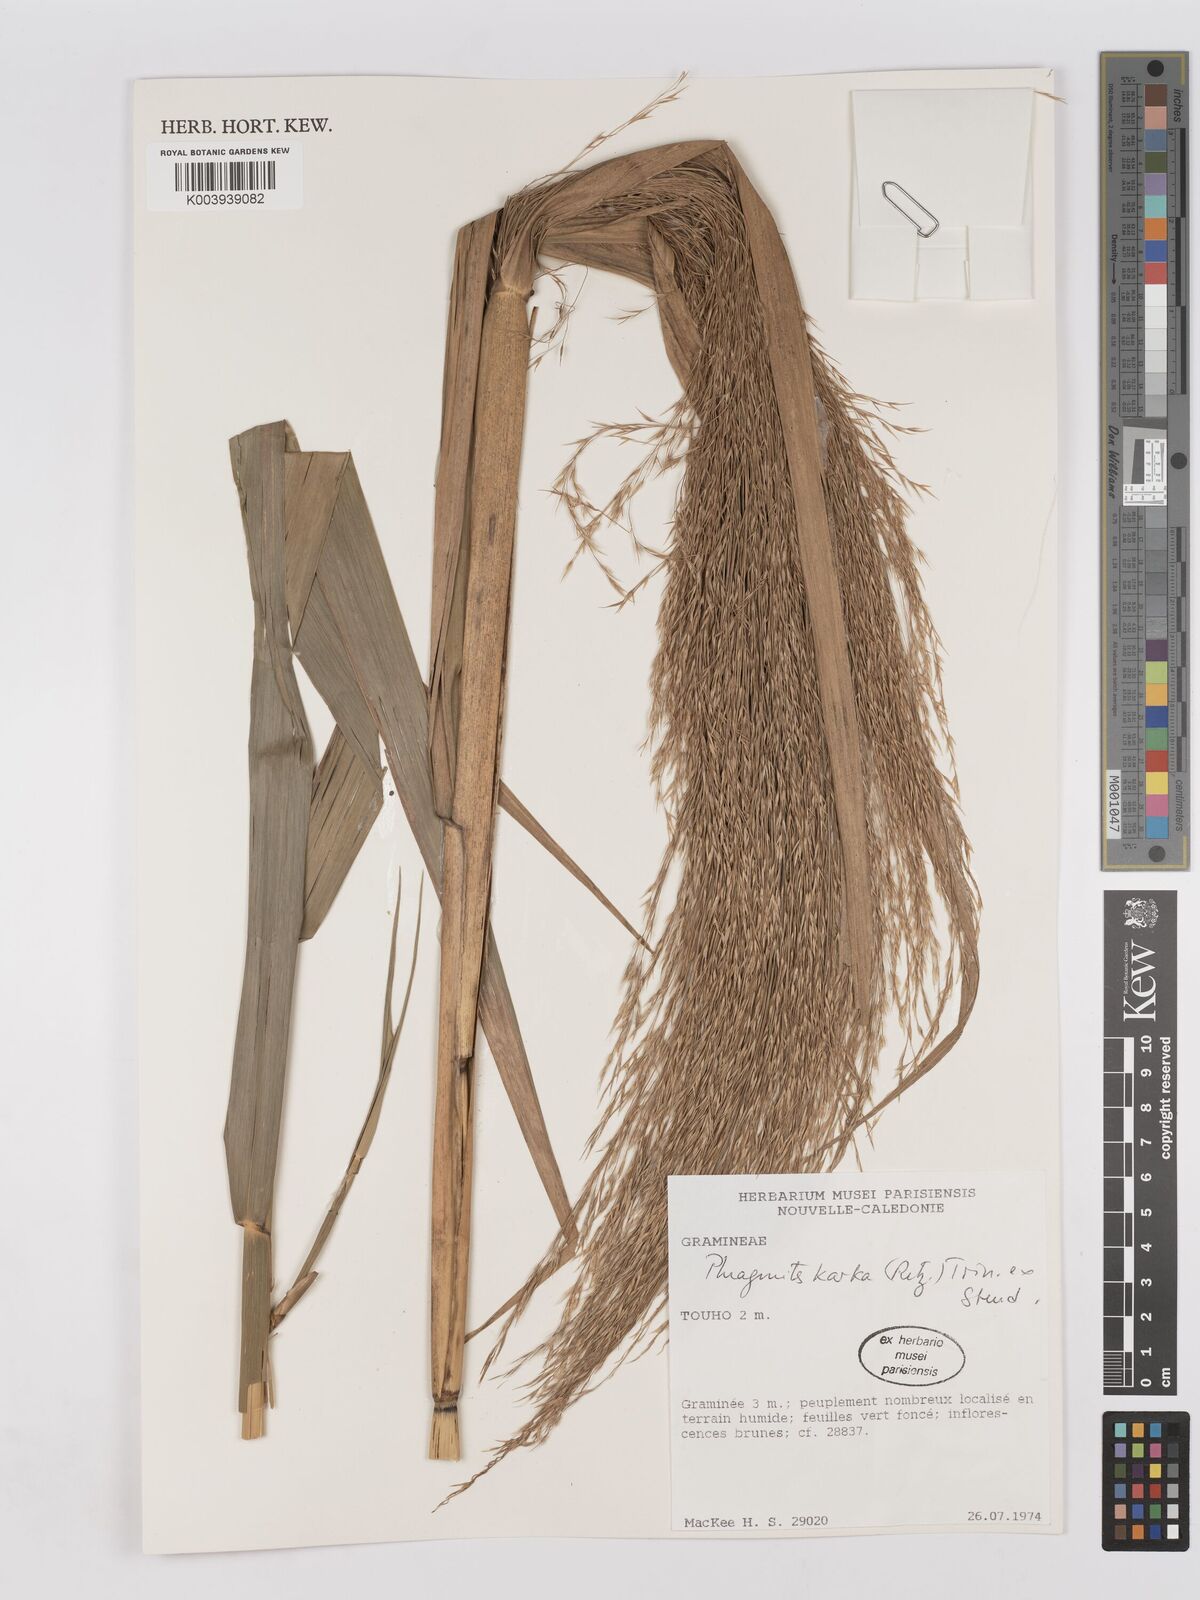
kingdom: Plantae
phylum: Tracheophyta
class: Liliopsida
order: Poales
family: Poaceae
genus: Phragmites
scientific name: Phragmites karka
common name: Tropical reed
